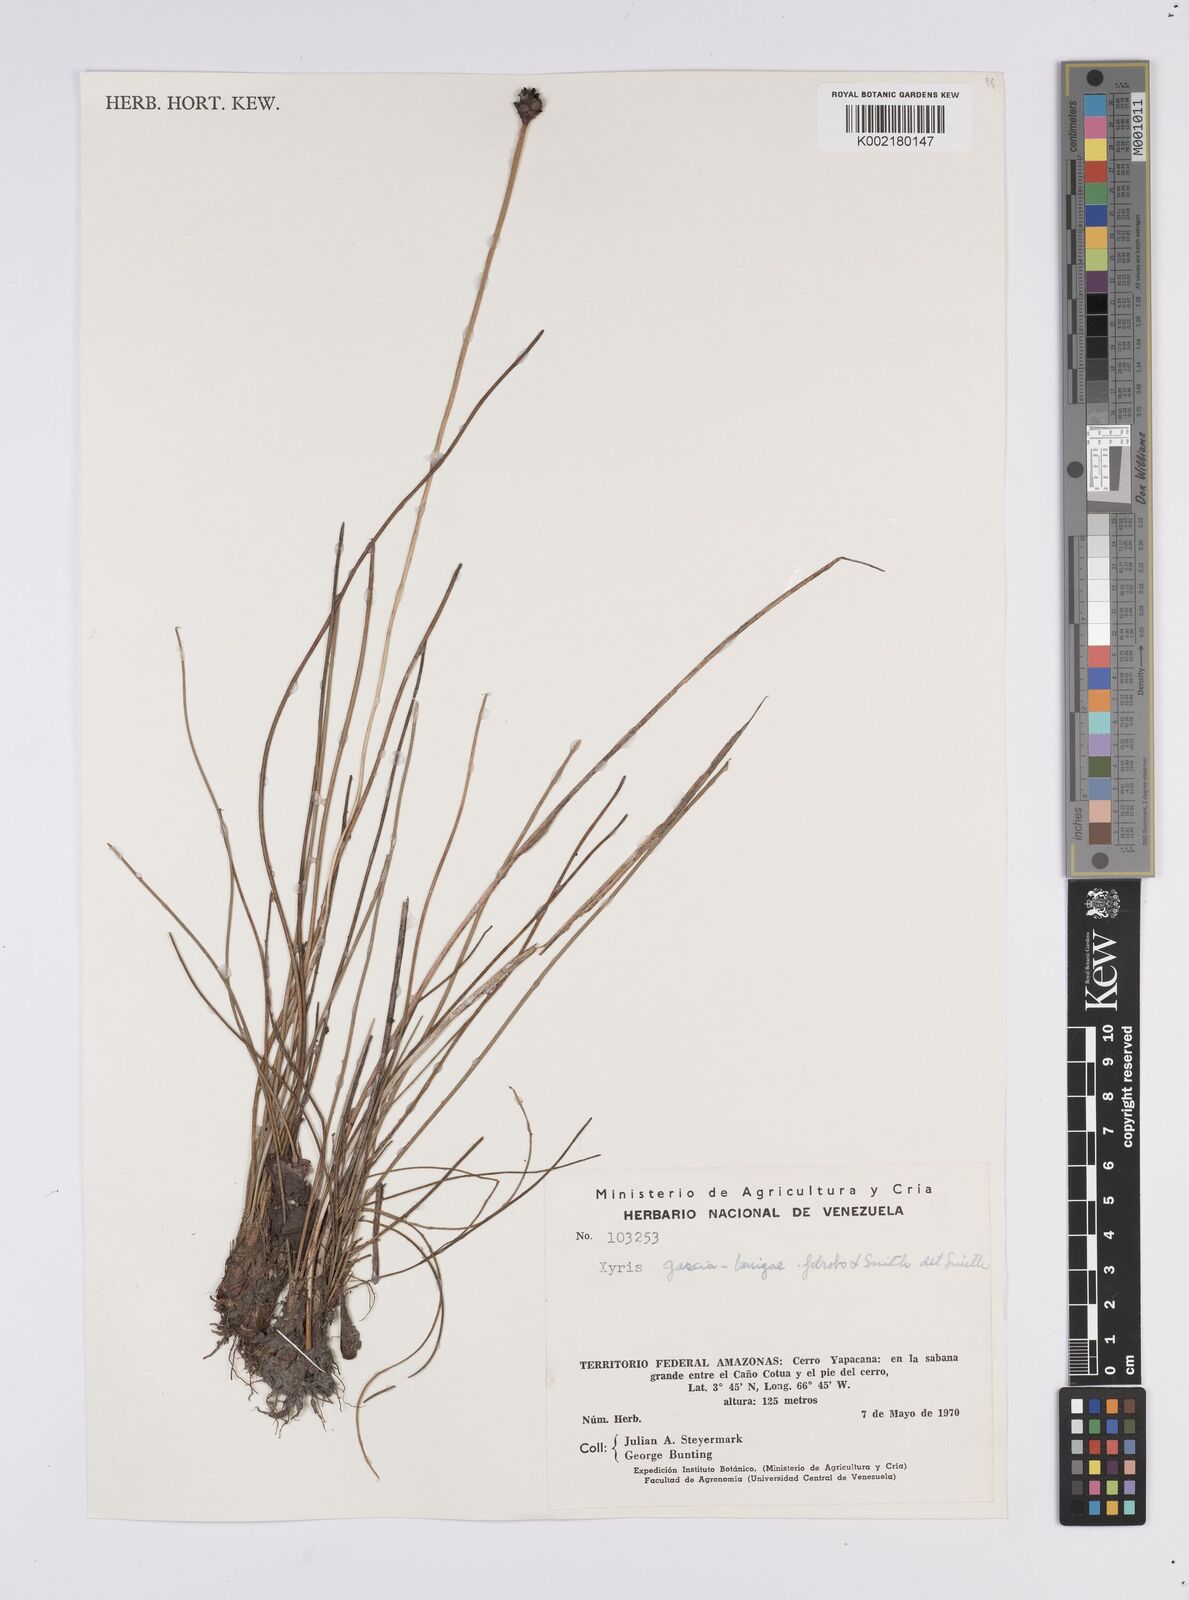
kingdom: Plantae
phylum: Tracheophyta
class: Liliopsida
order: Poales
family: Xyridaceae
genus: Xyris
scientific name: Xyris subglabrata
